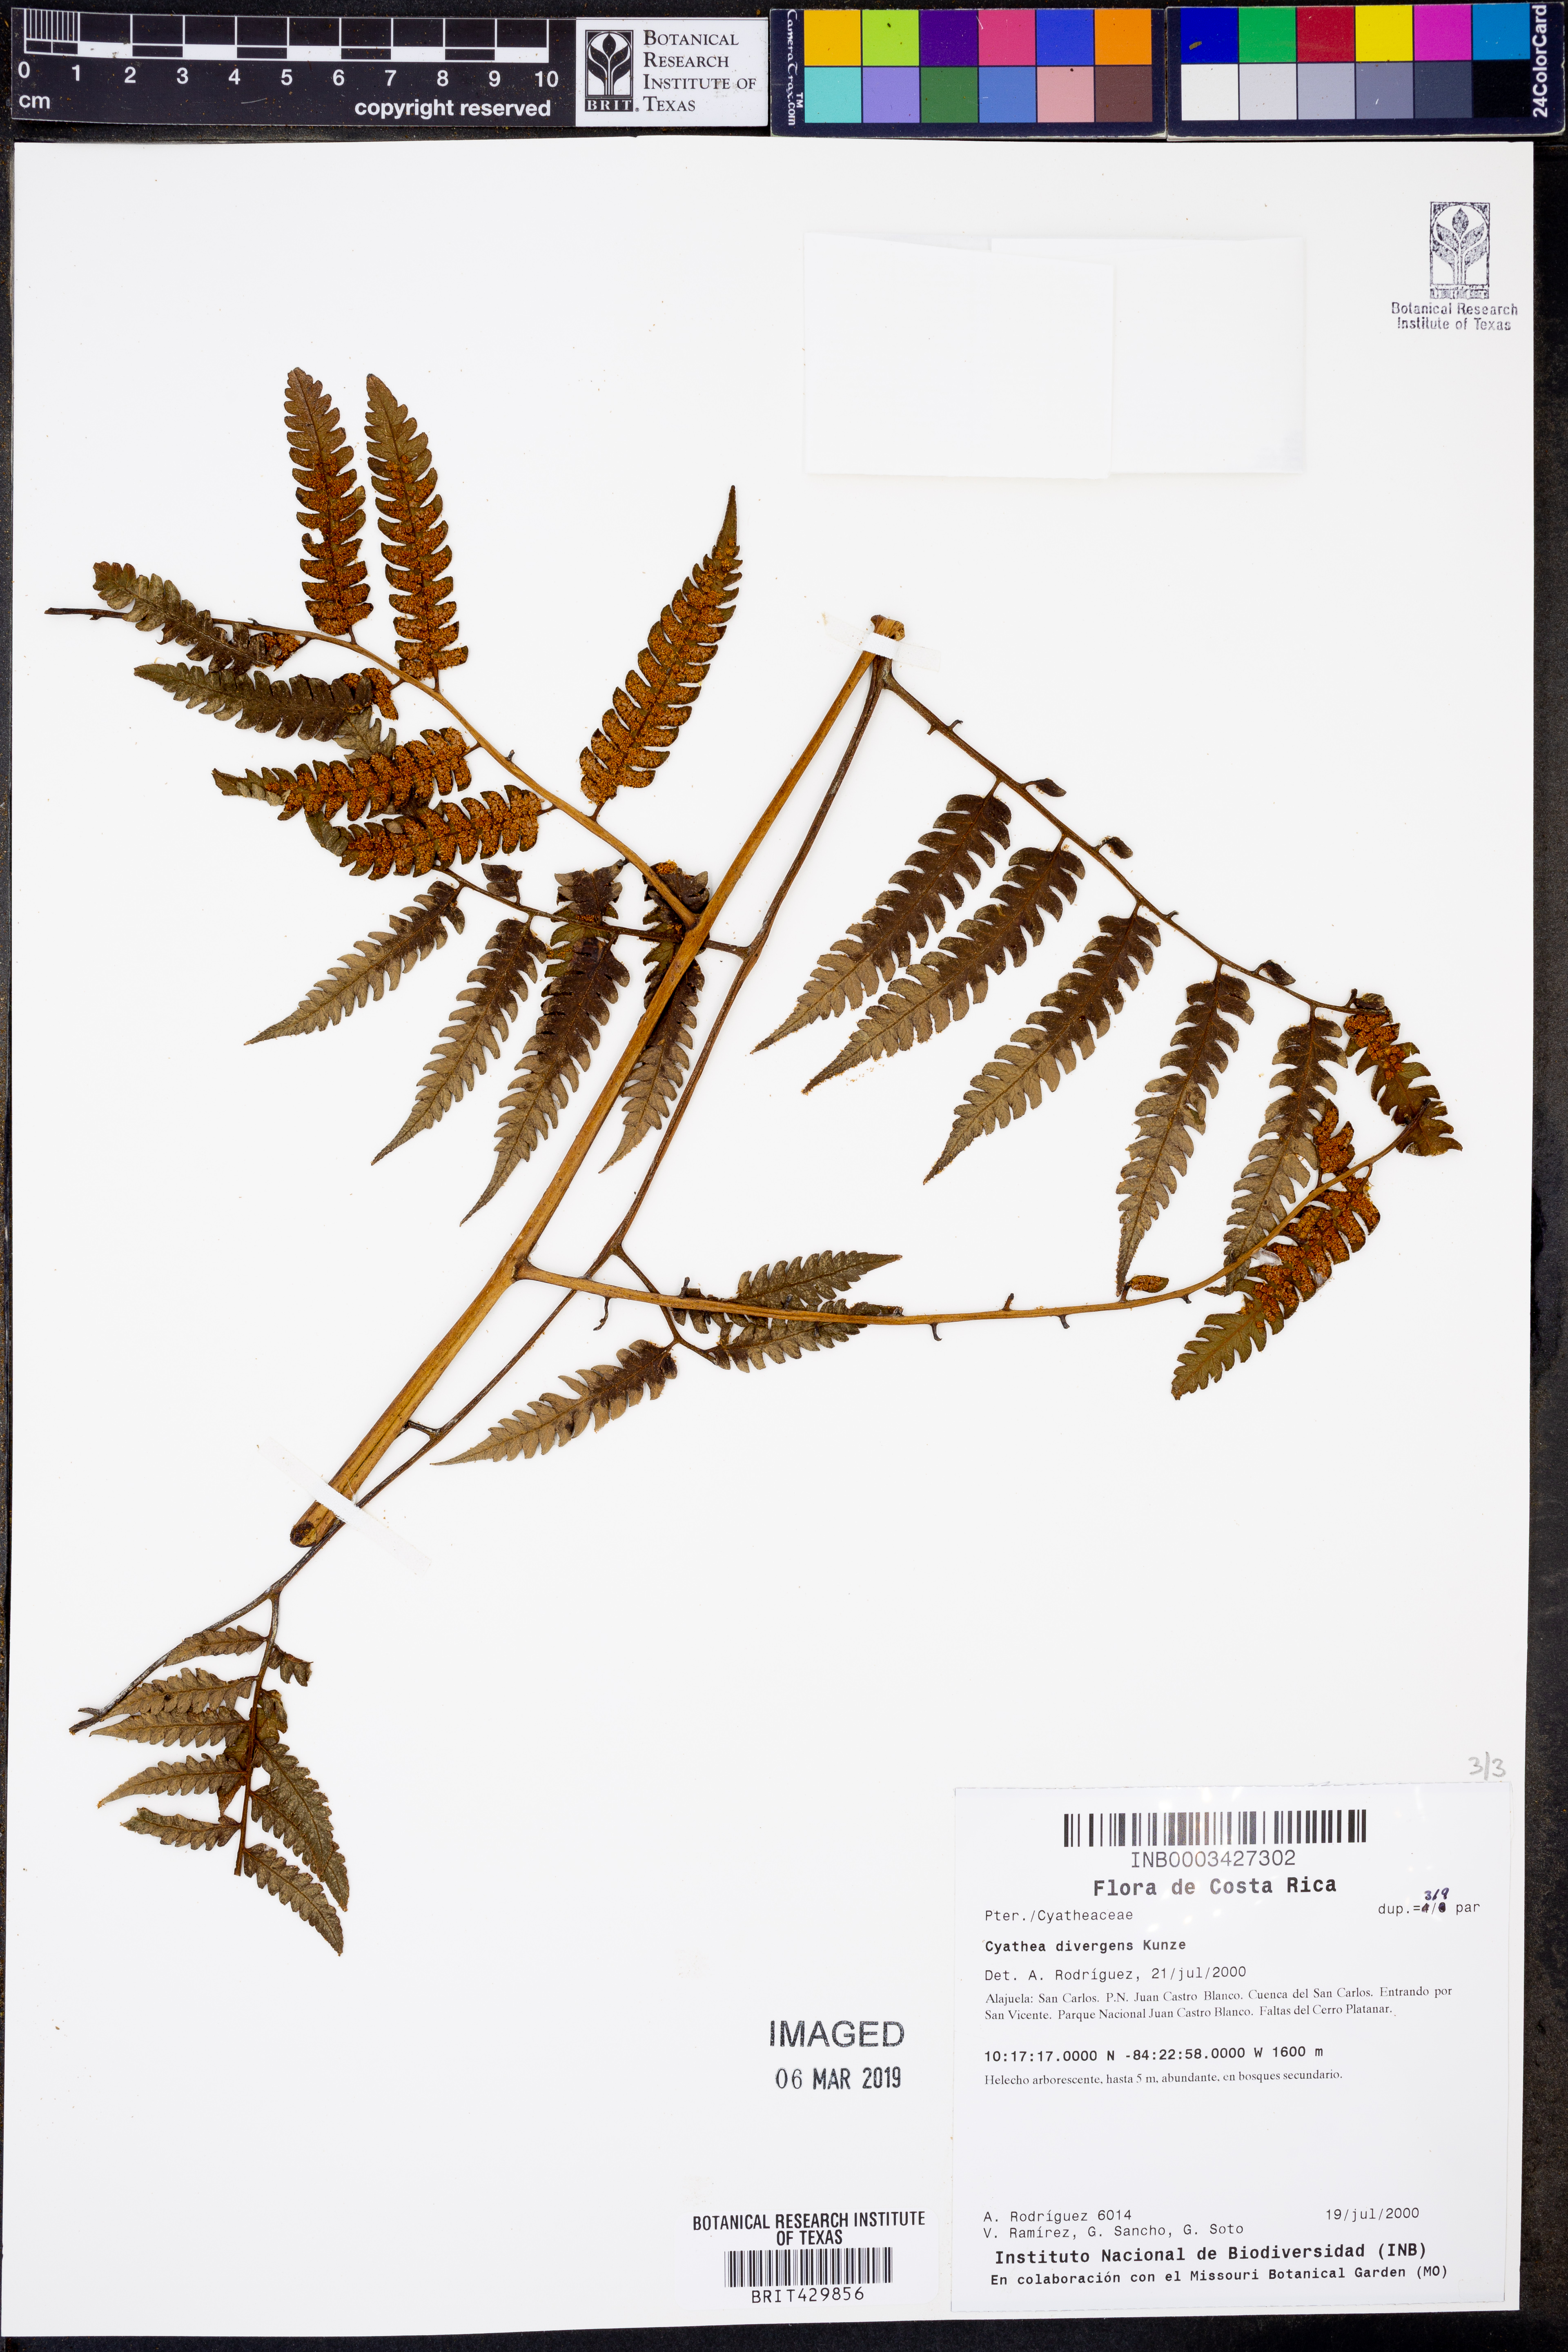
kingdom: Plantae
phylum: Tracheophyta
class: Polypodiopsida
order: Cyatheales
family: Cyatheaceae
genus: Cyathea
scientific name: Cyathea divergens
